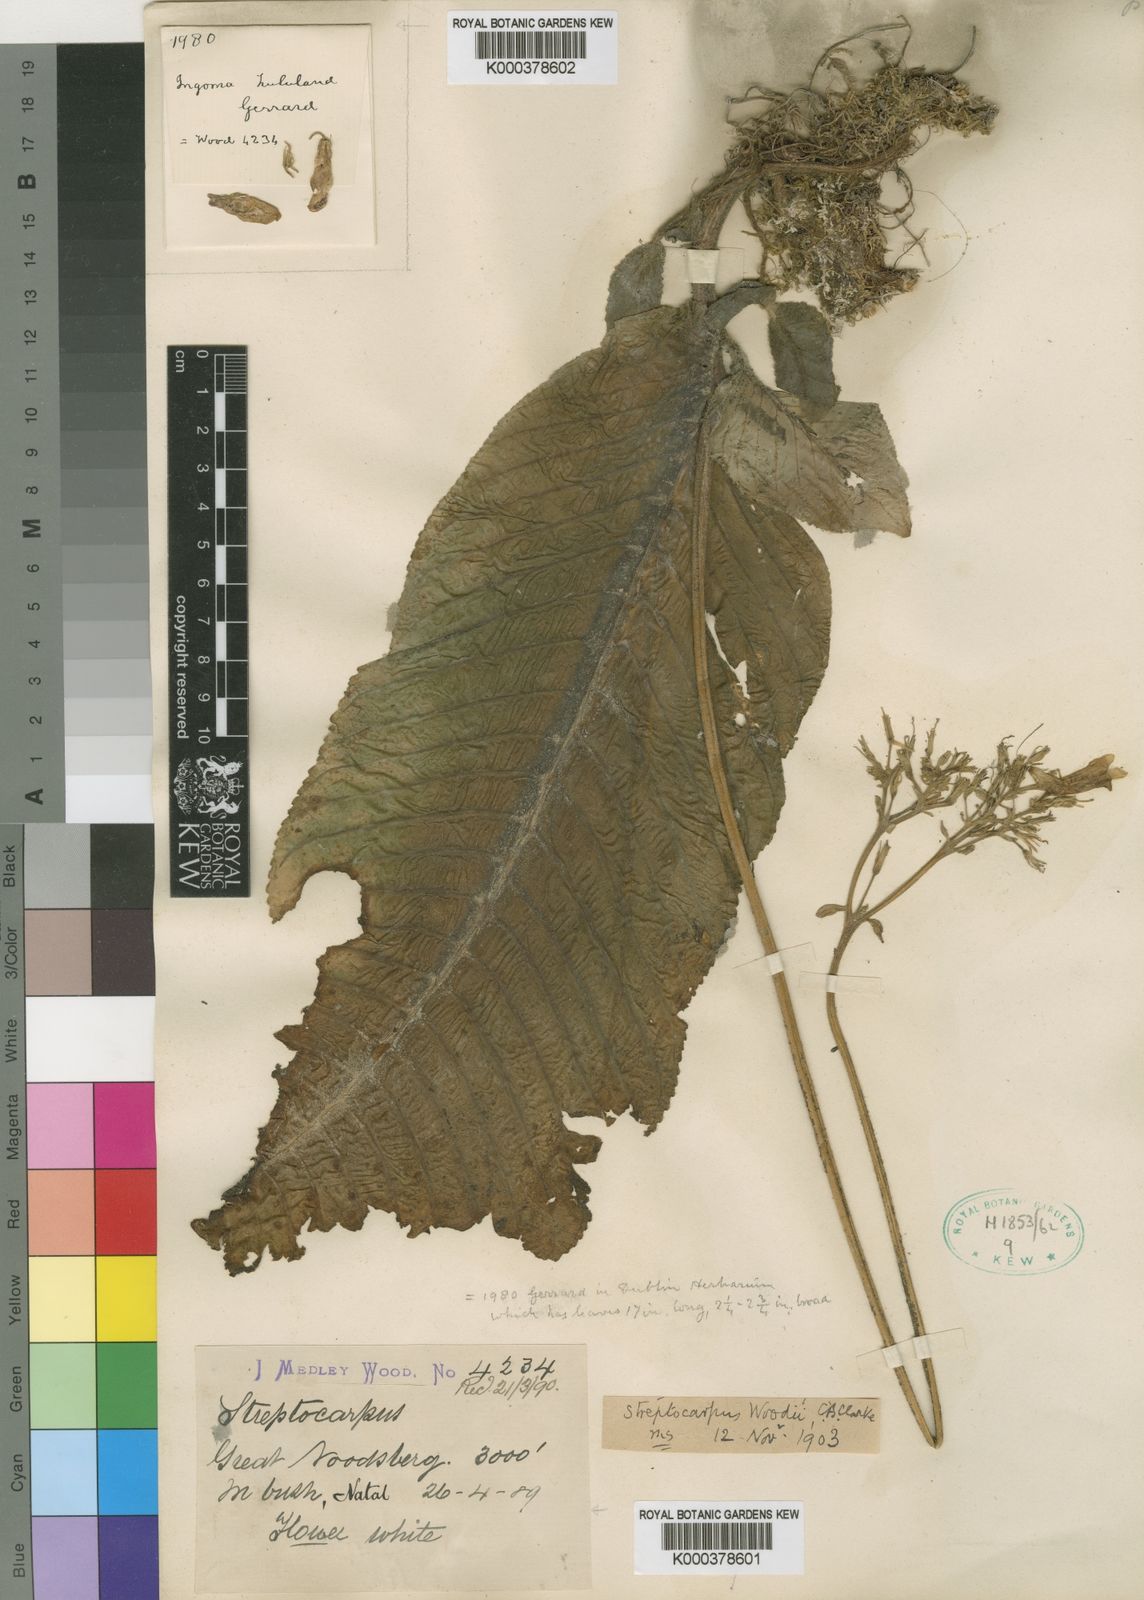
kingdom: Plantae
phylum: Tracheophyta
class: Magnoliopsida
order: Lamiales
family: Gesneriaceae
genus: Streptocarpus
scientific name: Streptocarpus fanniniae
